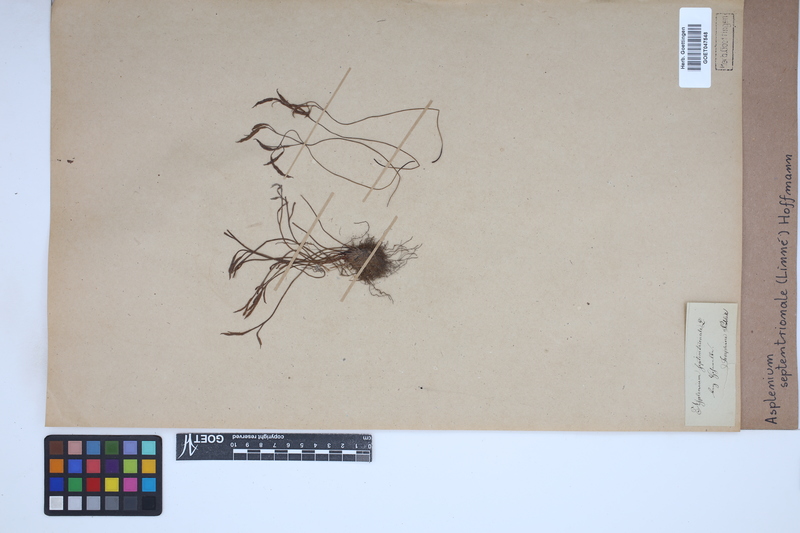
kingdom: Plantae
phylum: Tracheophyta
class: Polypodiopsida
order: Polypodiales
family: Aspleniaceae
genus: Asplenium
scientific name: Asplenium septentrionale
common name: Forked spleenwort
